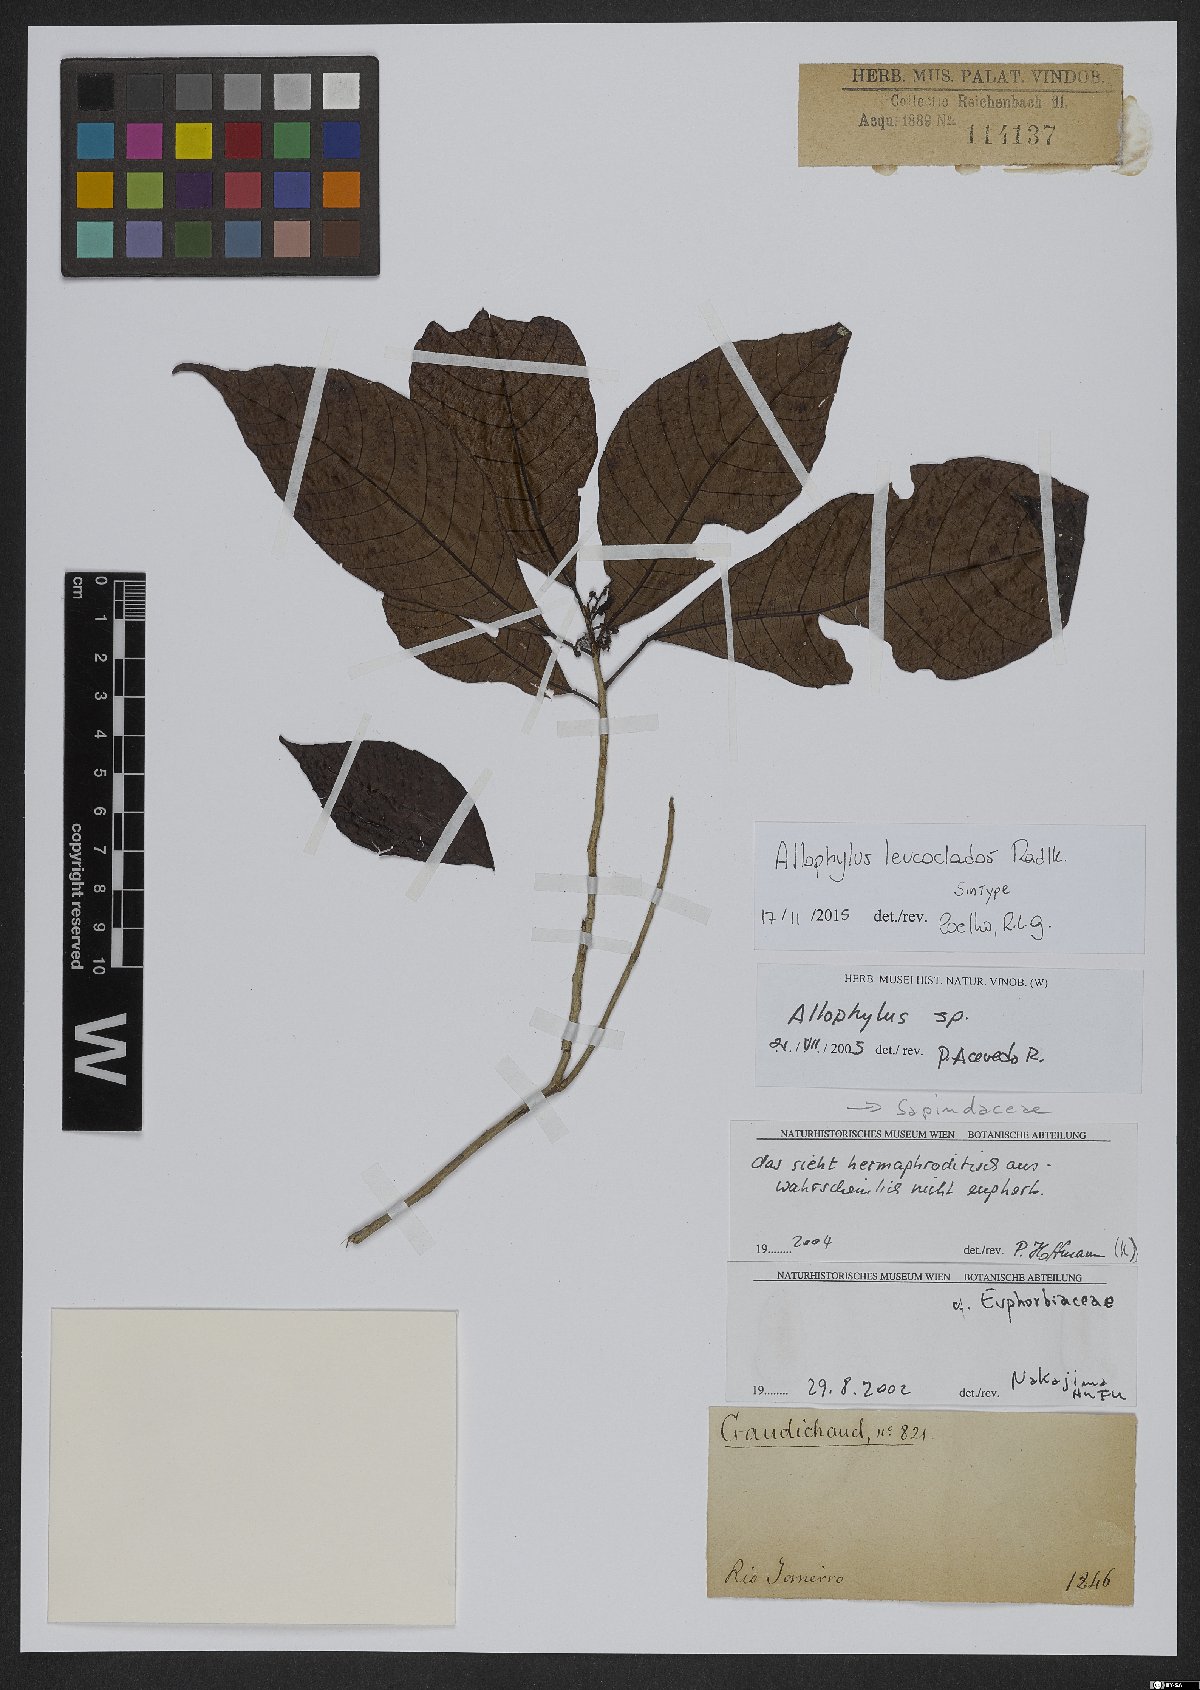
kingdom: Plantae
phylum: Tracheophyta
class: Magnoliopsida
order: Sapindales
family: Sapindaceae
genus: Allophylus
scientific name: Allophylus leucoclados
